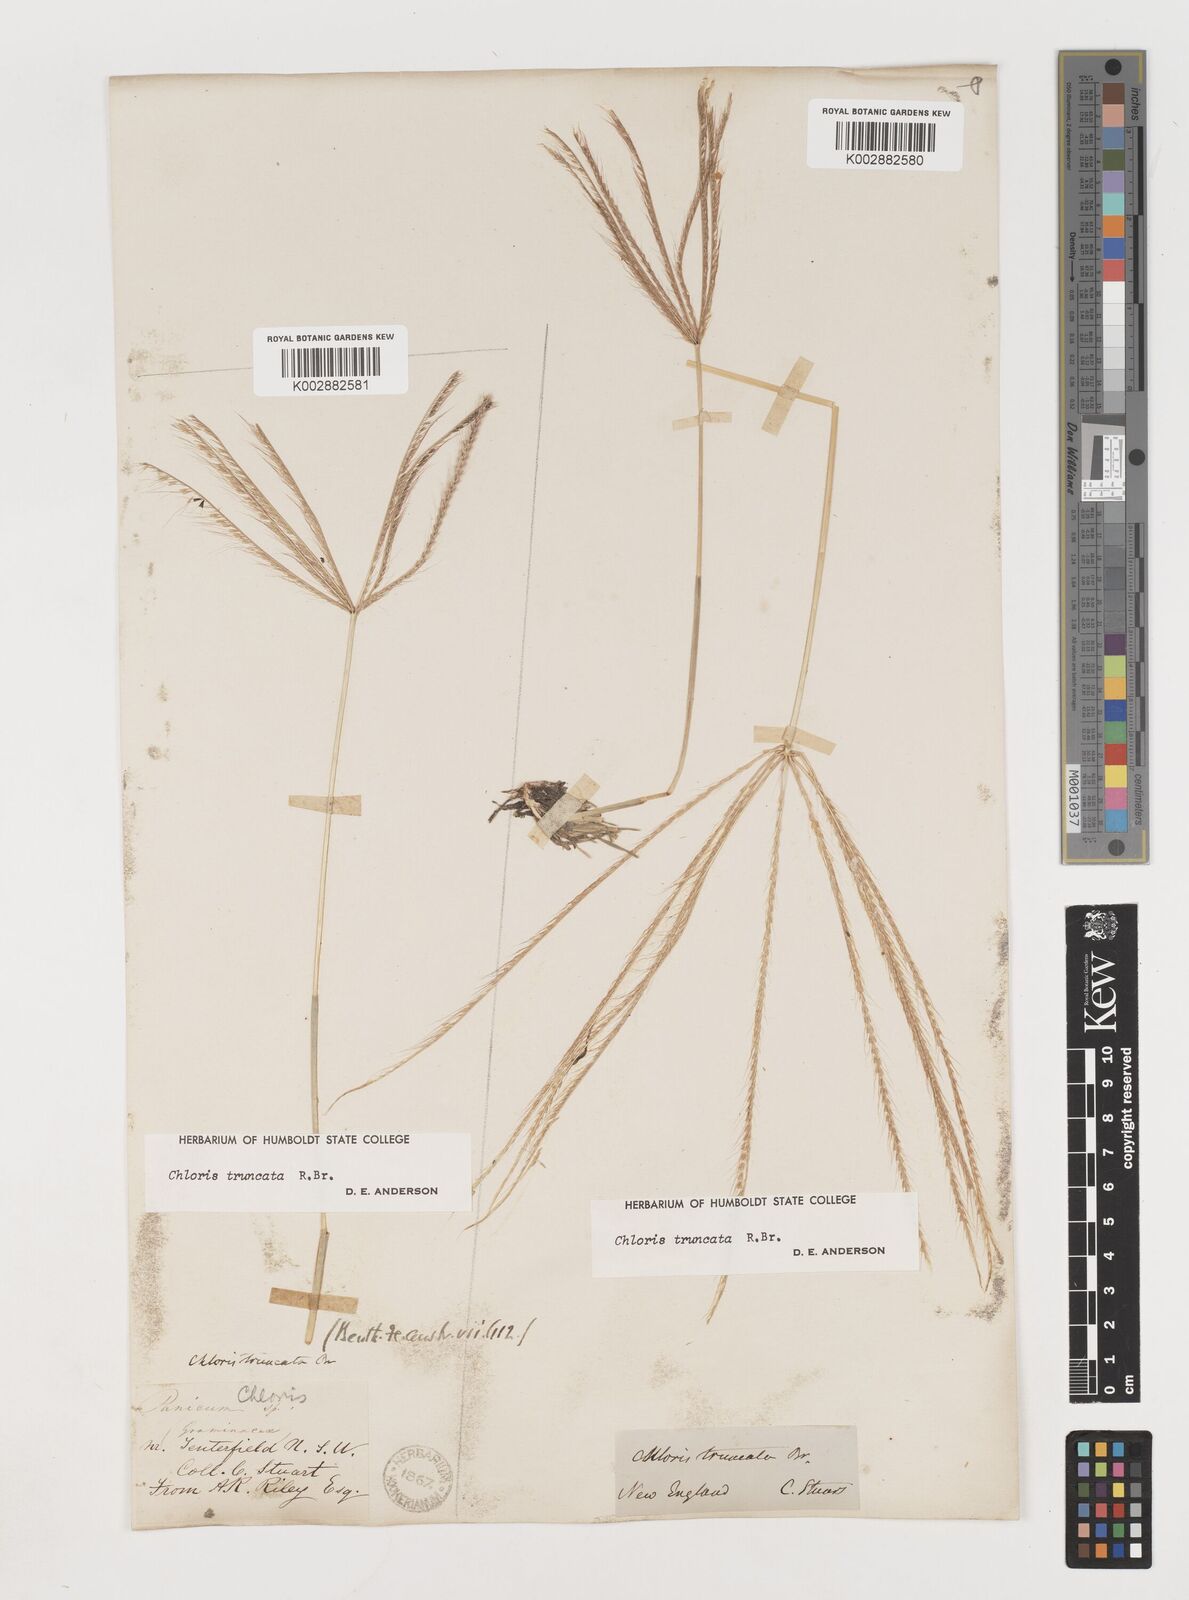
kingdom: Plantae
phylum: Tracheophyta
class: Liliopsida
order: Poales
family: Poaceae
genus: Chloris
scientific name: Chloris truncata
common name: Windmill-grass
